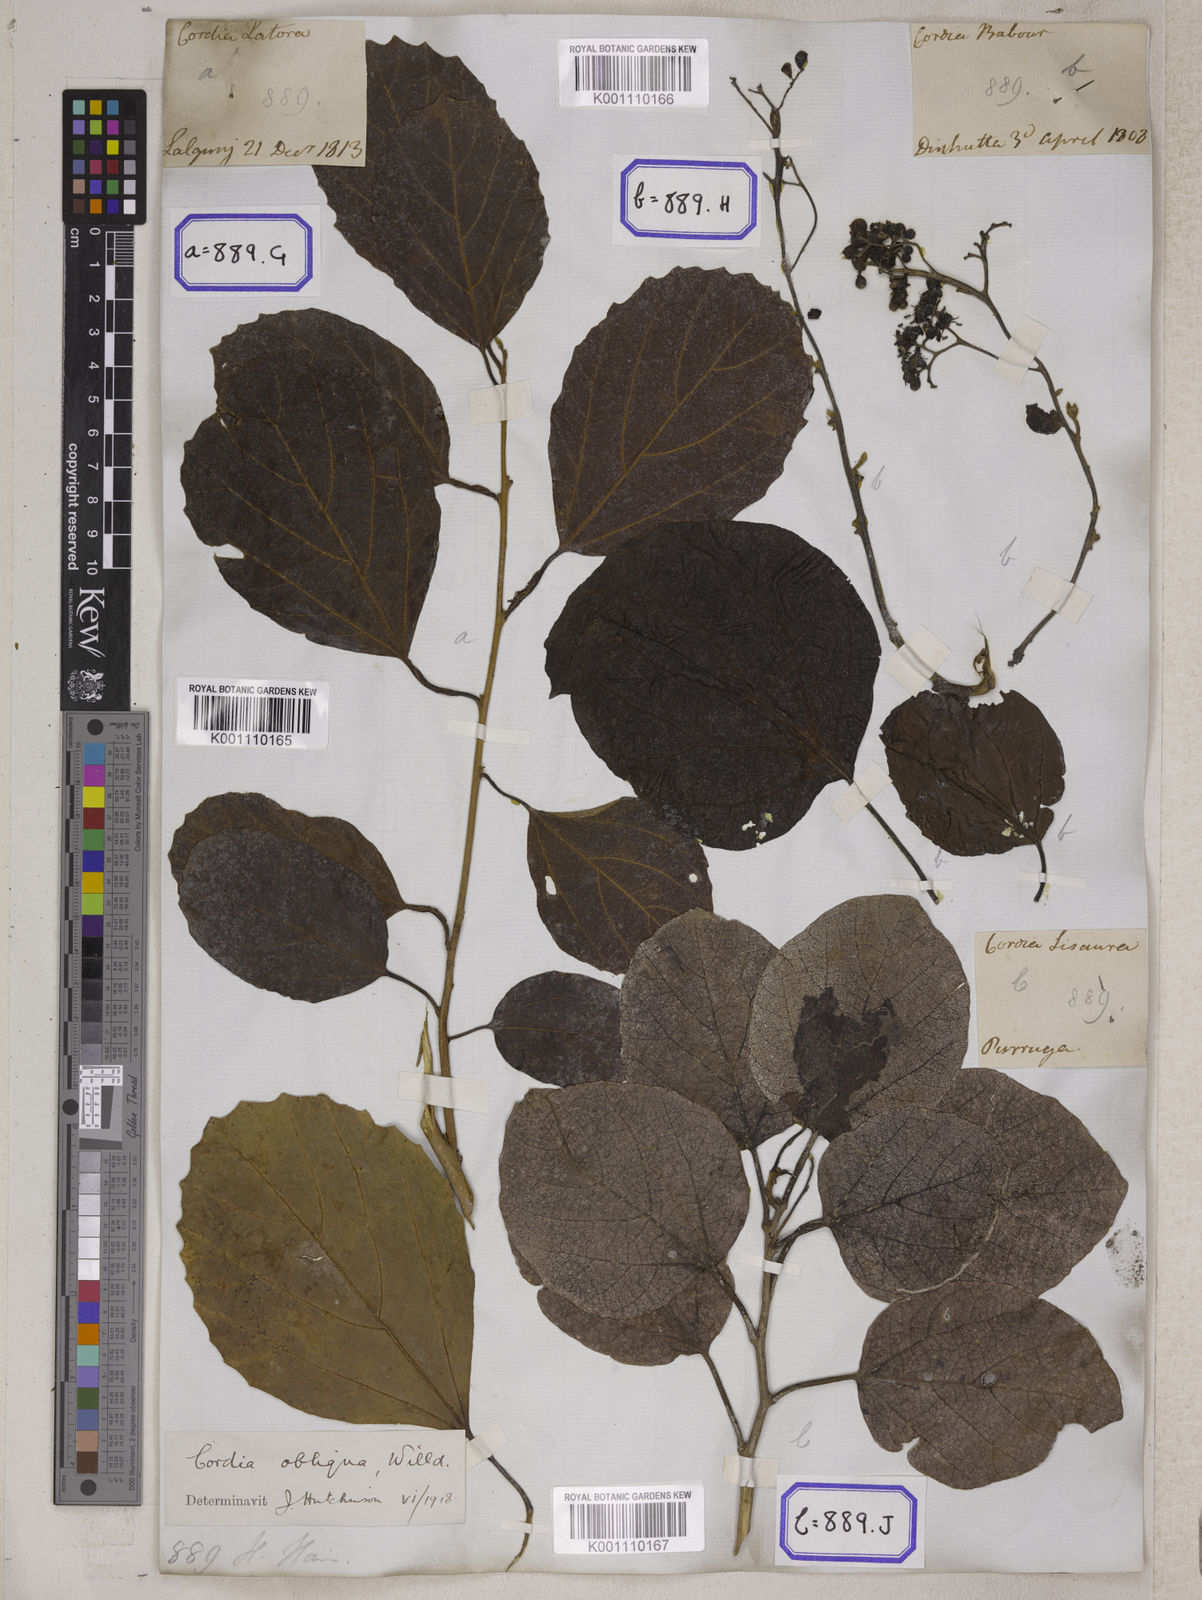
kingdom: Plantae
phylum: Tracheophyta
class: Magnoliopsida
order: Boraginales
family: Cordiaceae
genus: Cordia
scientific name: Cordia myxa
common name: Assyrian plum
